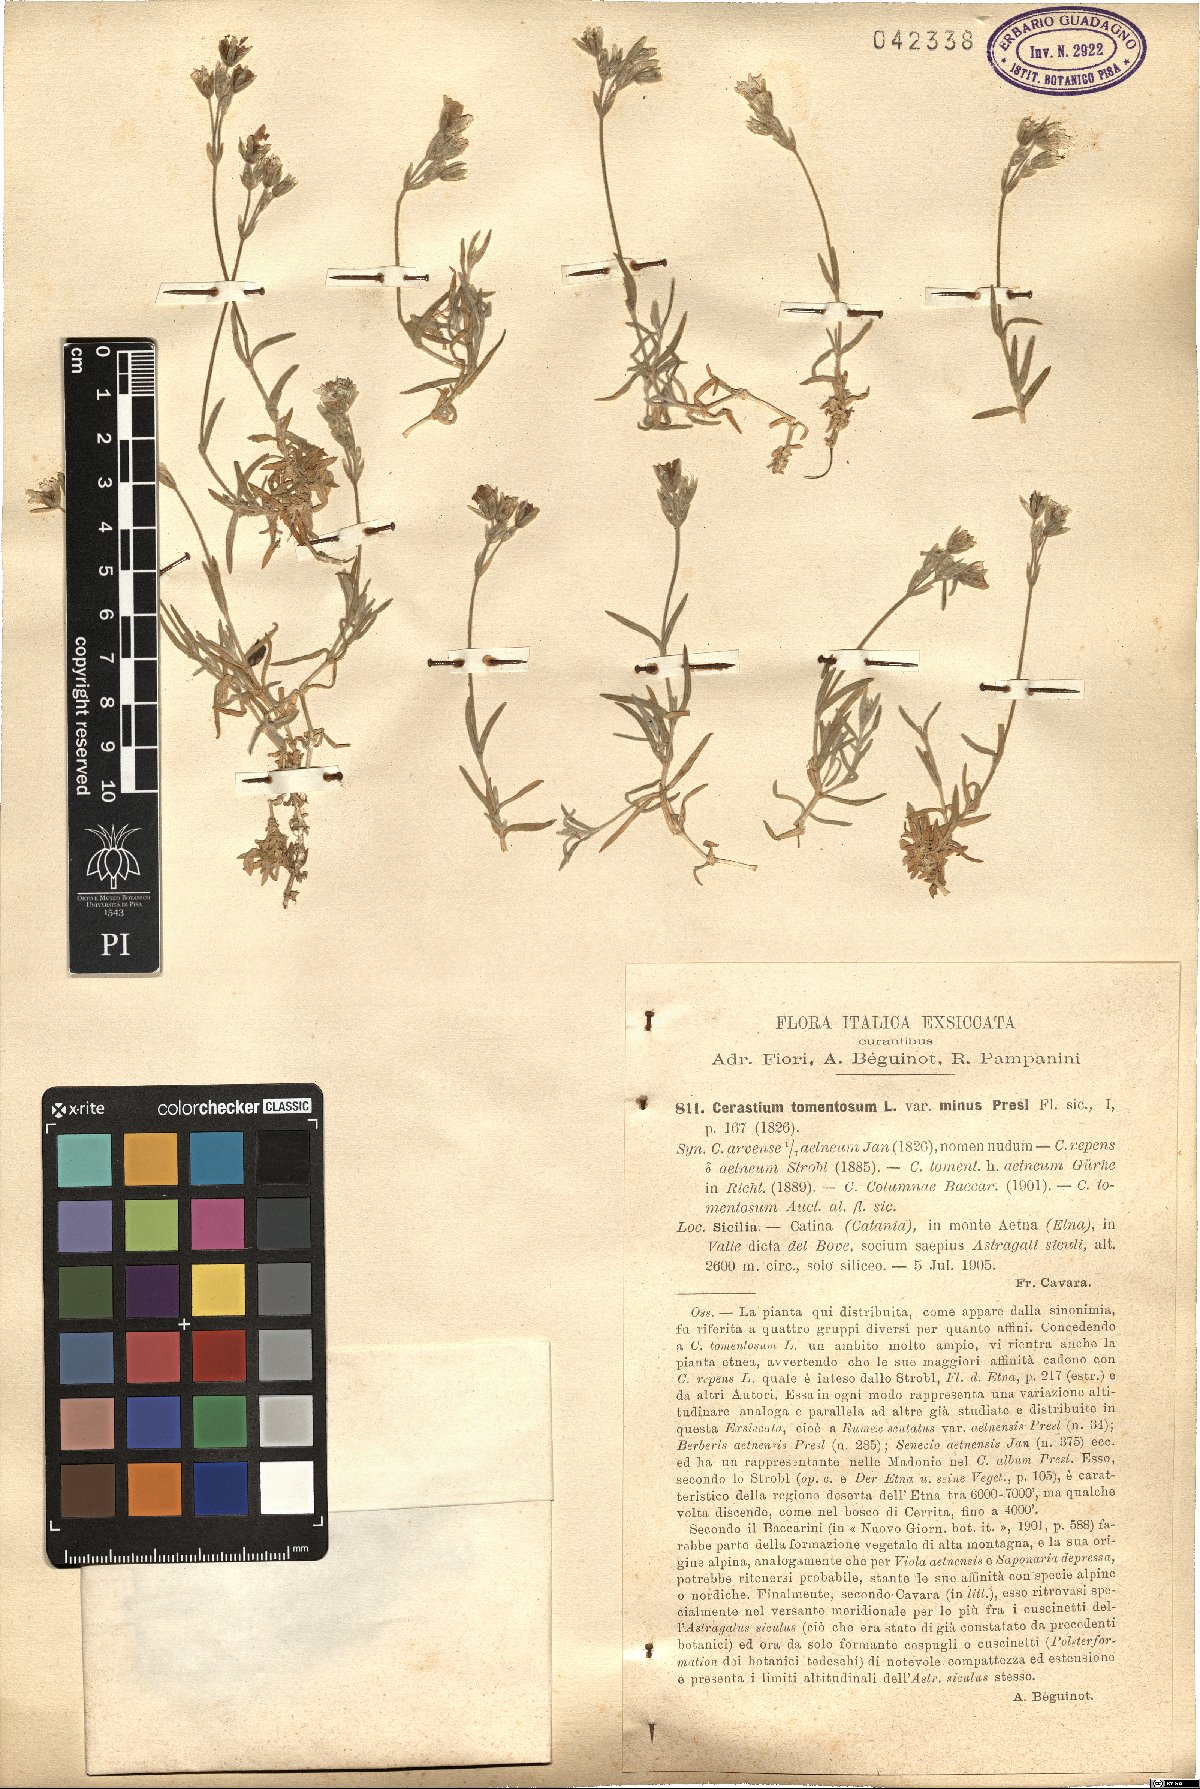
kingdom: Plantae
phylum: Tracheophyta
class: Magnoliopsida
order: Caryophyllales
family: Caryophyllaceae
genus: Cerastium
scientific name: Cerastium tomentosum
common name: Snow-in-summer
